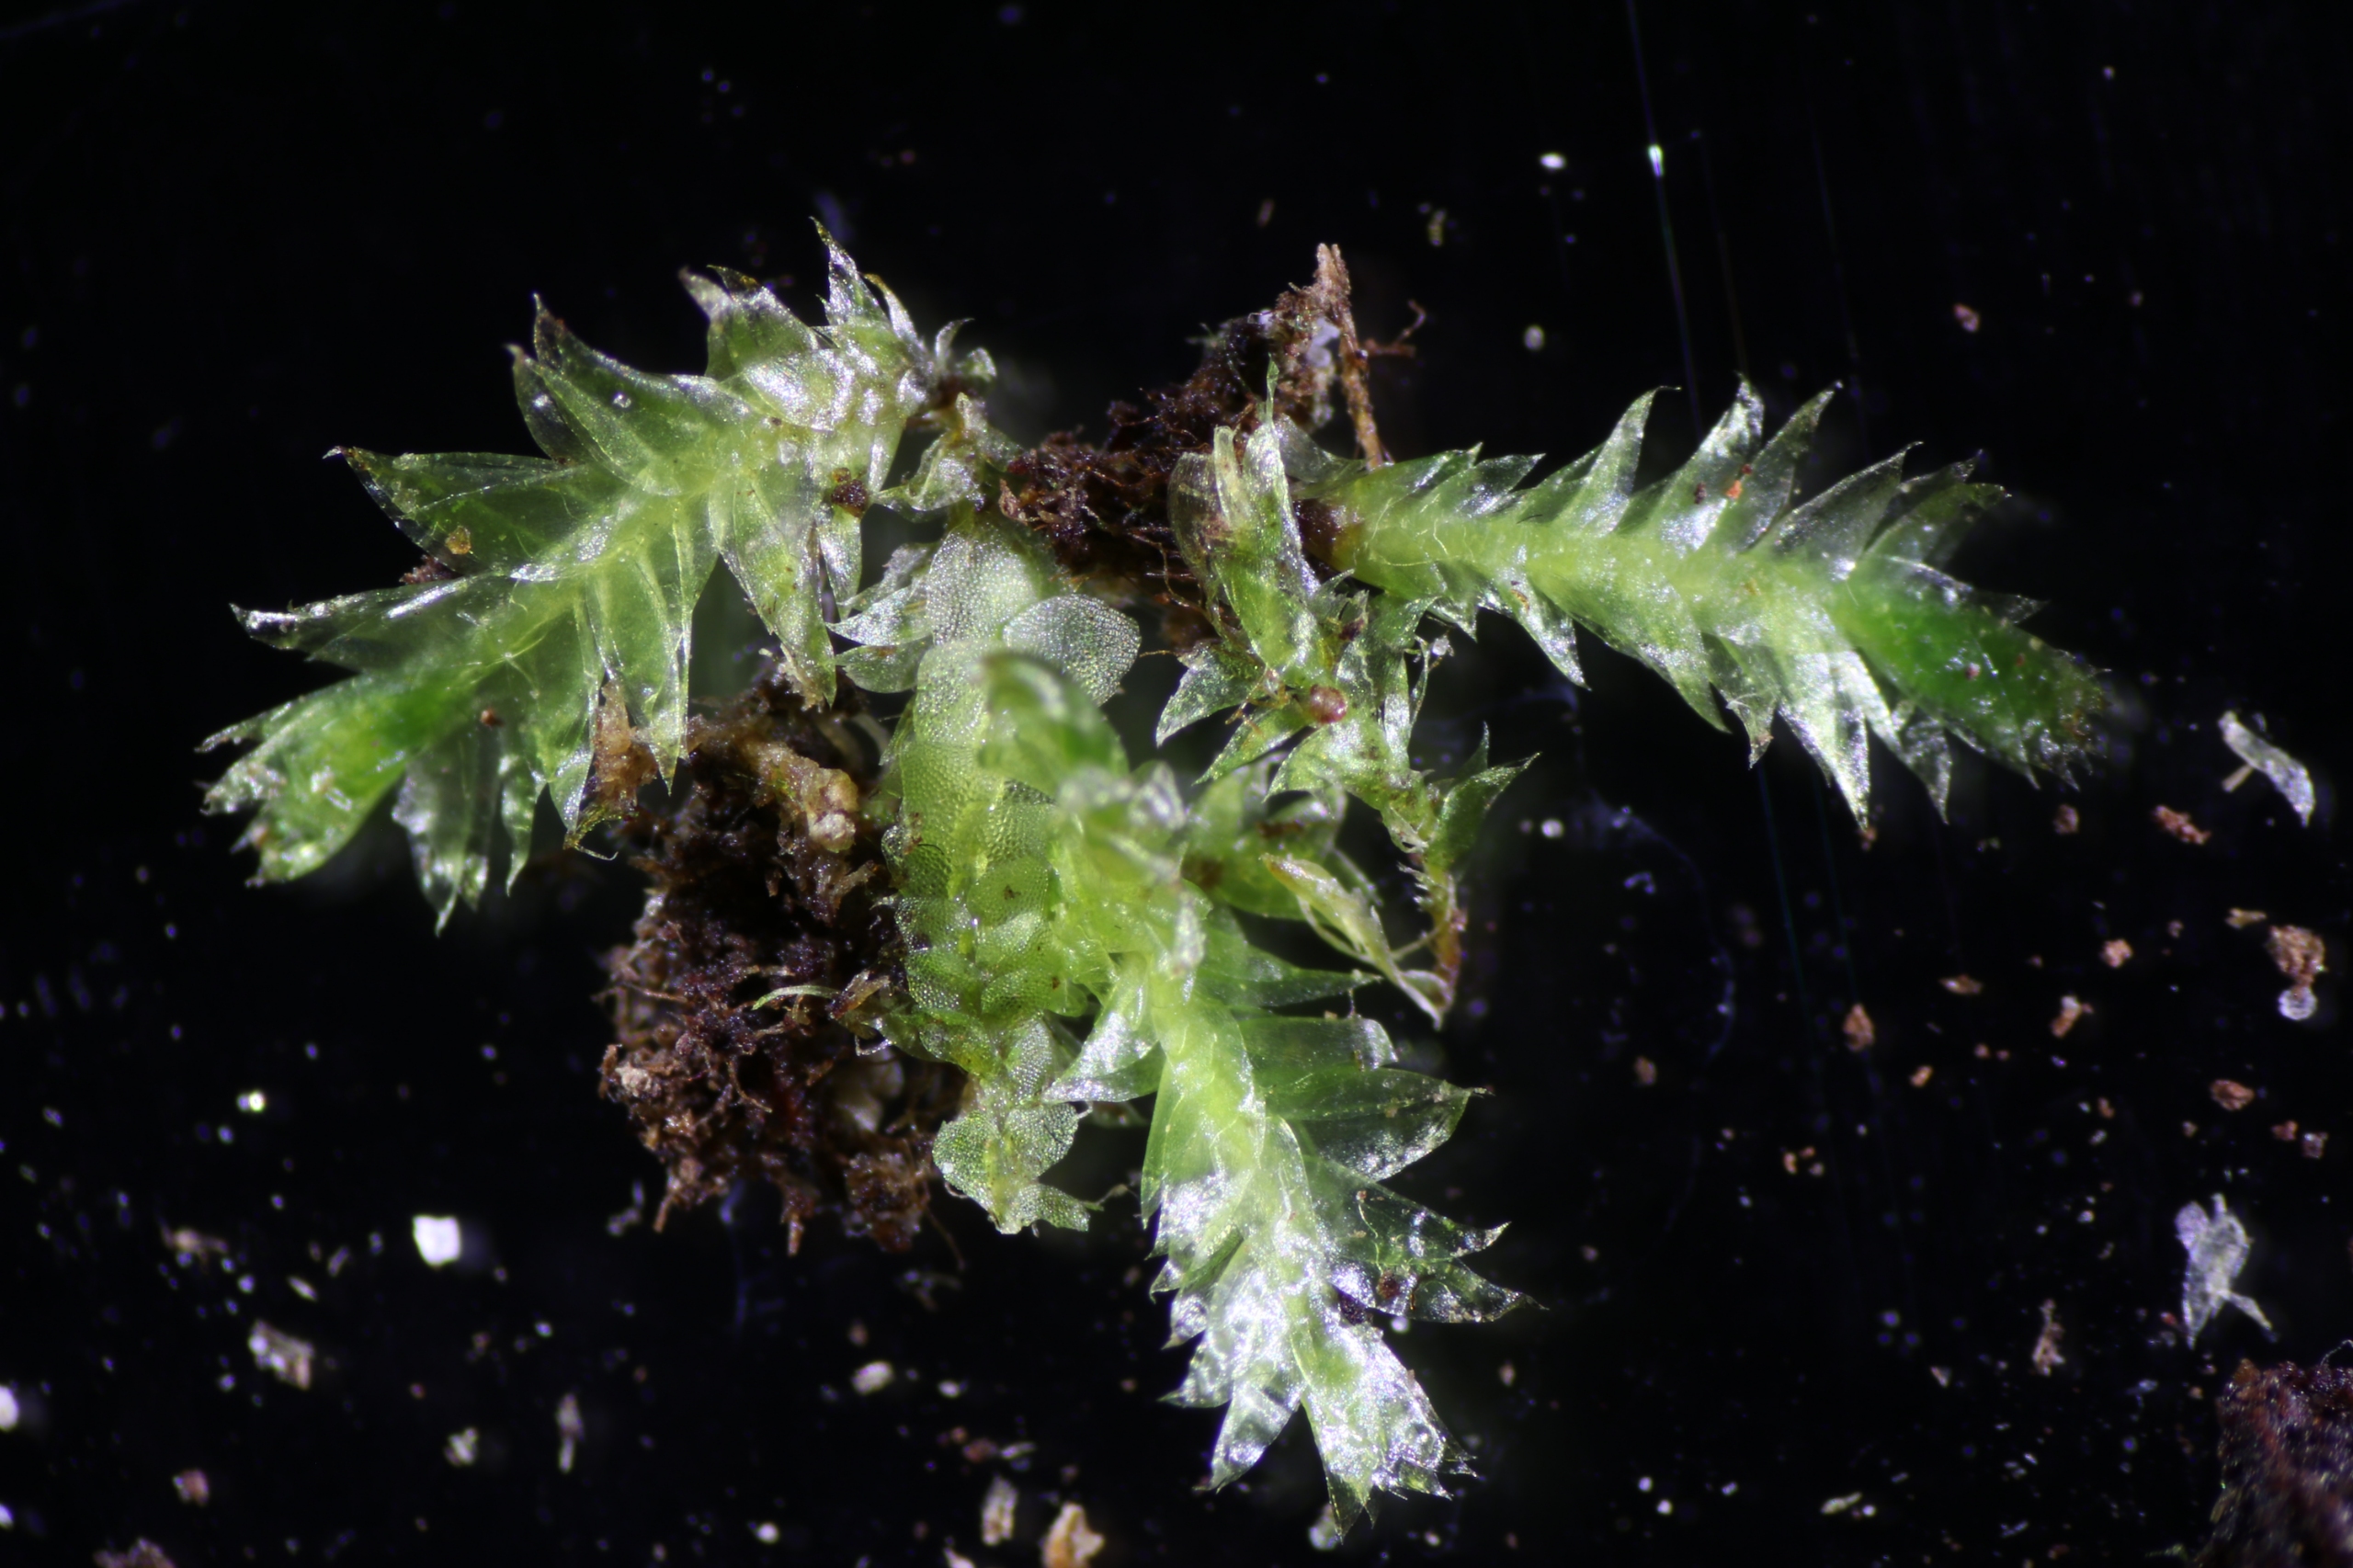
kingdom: Plantae
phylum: Bryophyta
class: Bryopsida
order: Hypnales
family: Plagiotheciaceae
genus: Plagiothecium
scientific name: Plagiothecium laetum
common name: Retkapslet tæppemos
